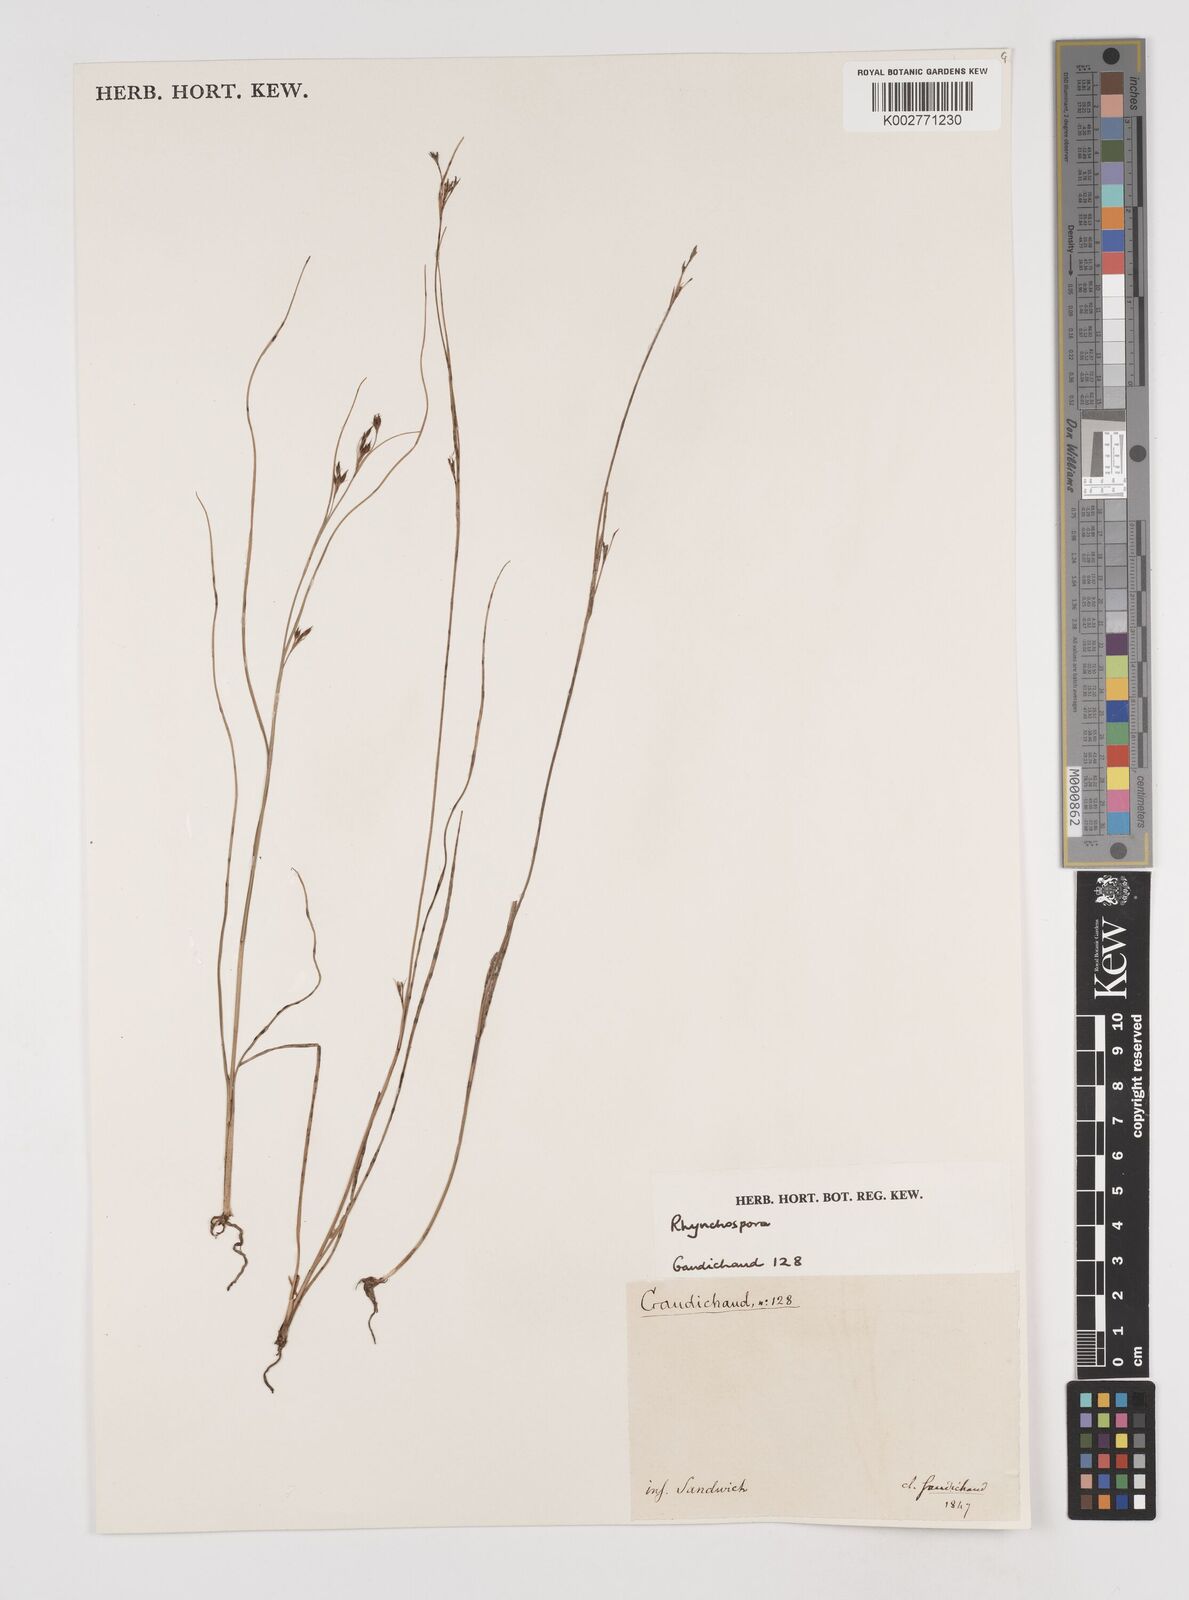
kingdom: Plantae
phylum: Tracheophyta
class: Liliopsida
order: Poales
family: Cyperaceae
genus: Rhynchospora
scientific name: Rhynchospora
